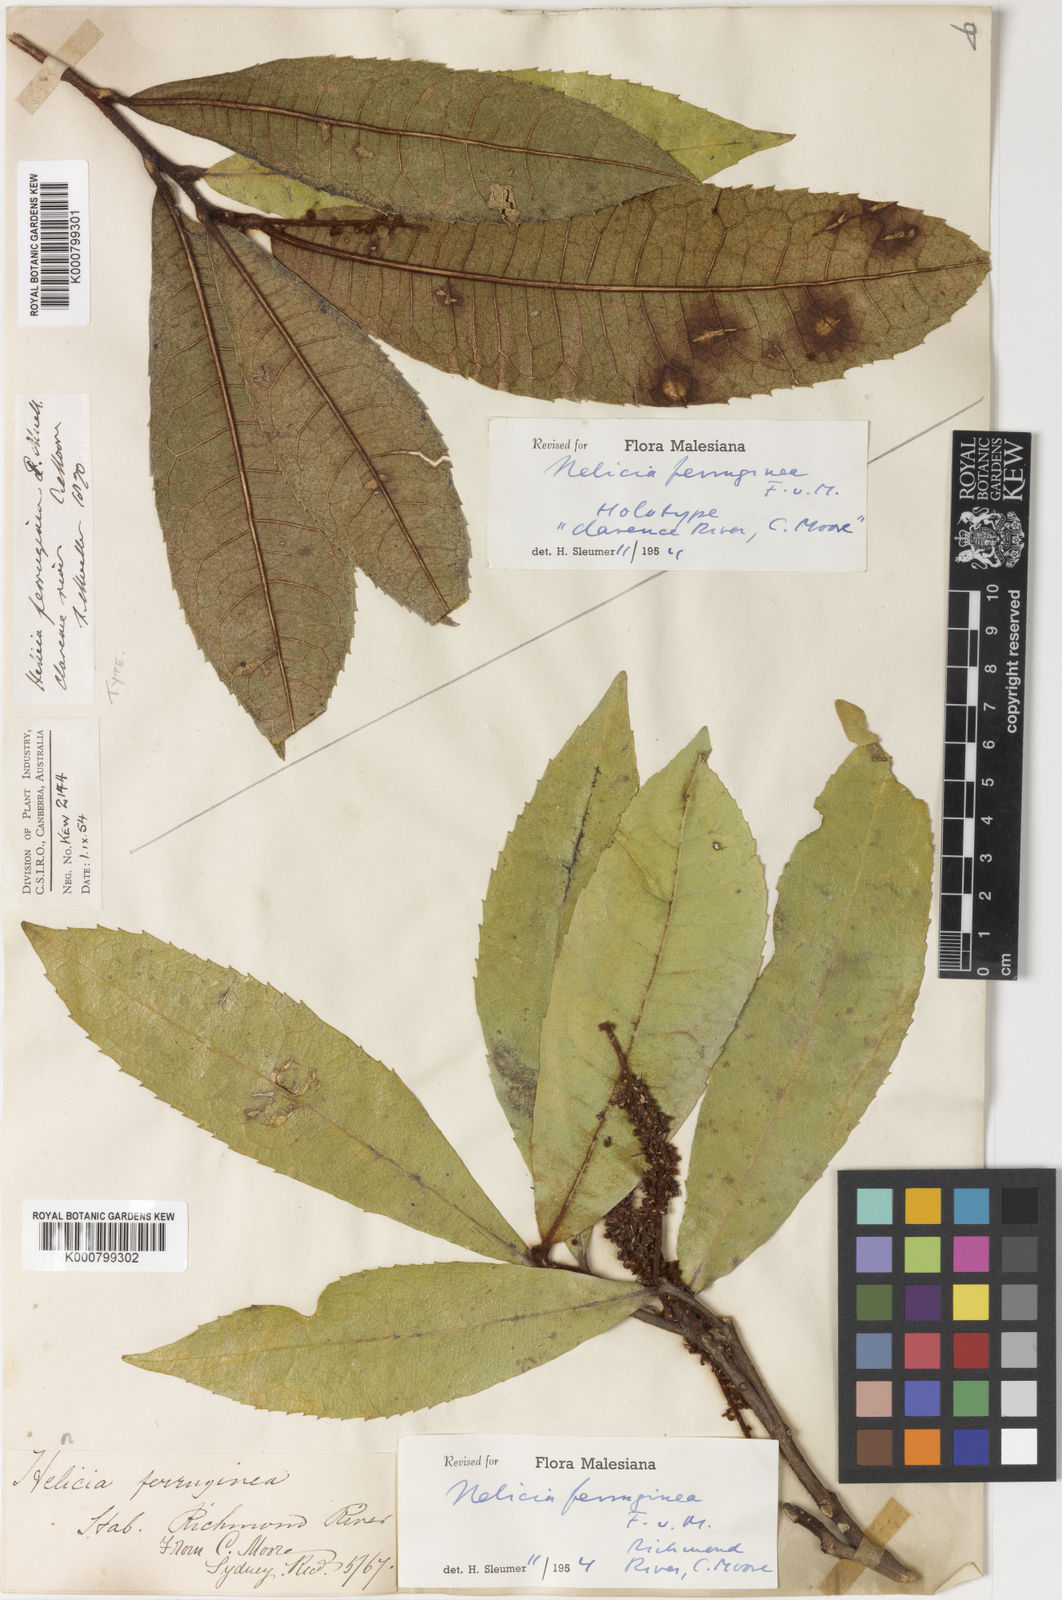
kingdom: Plantae
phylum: Tracheophyta
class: Magnoliopsida
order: Proteales
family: Proteaceae
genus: Helicia
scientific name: Helicia ferruginea
